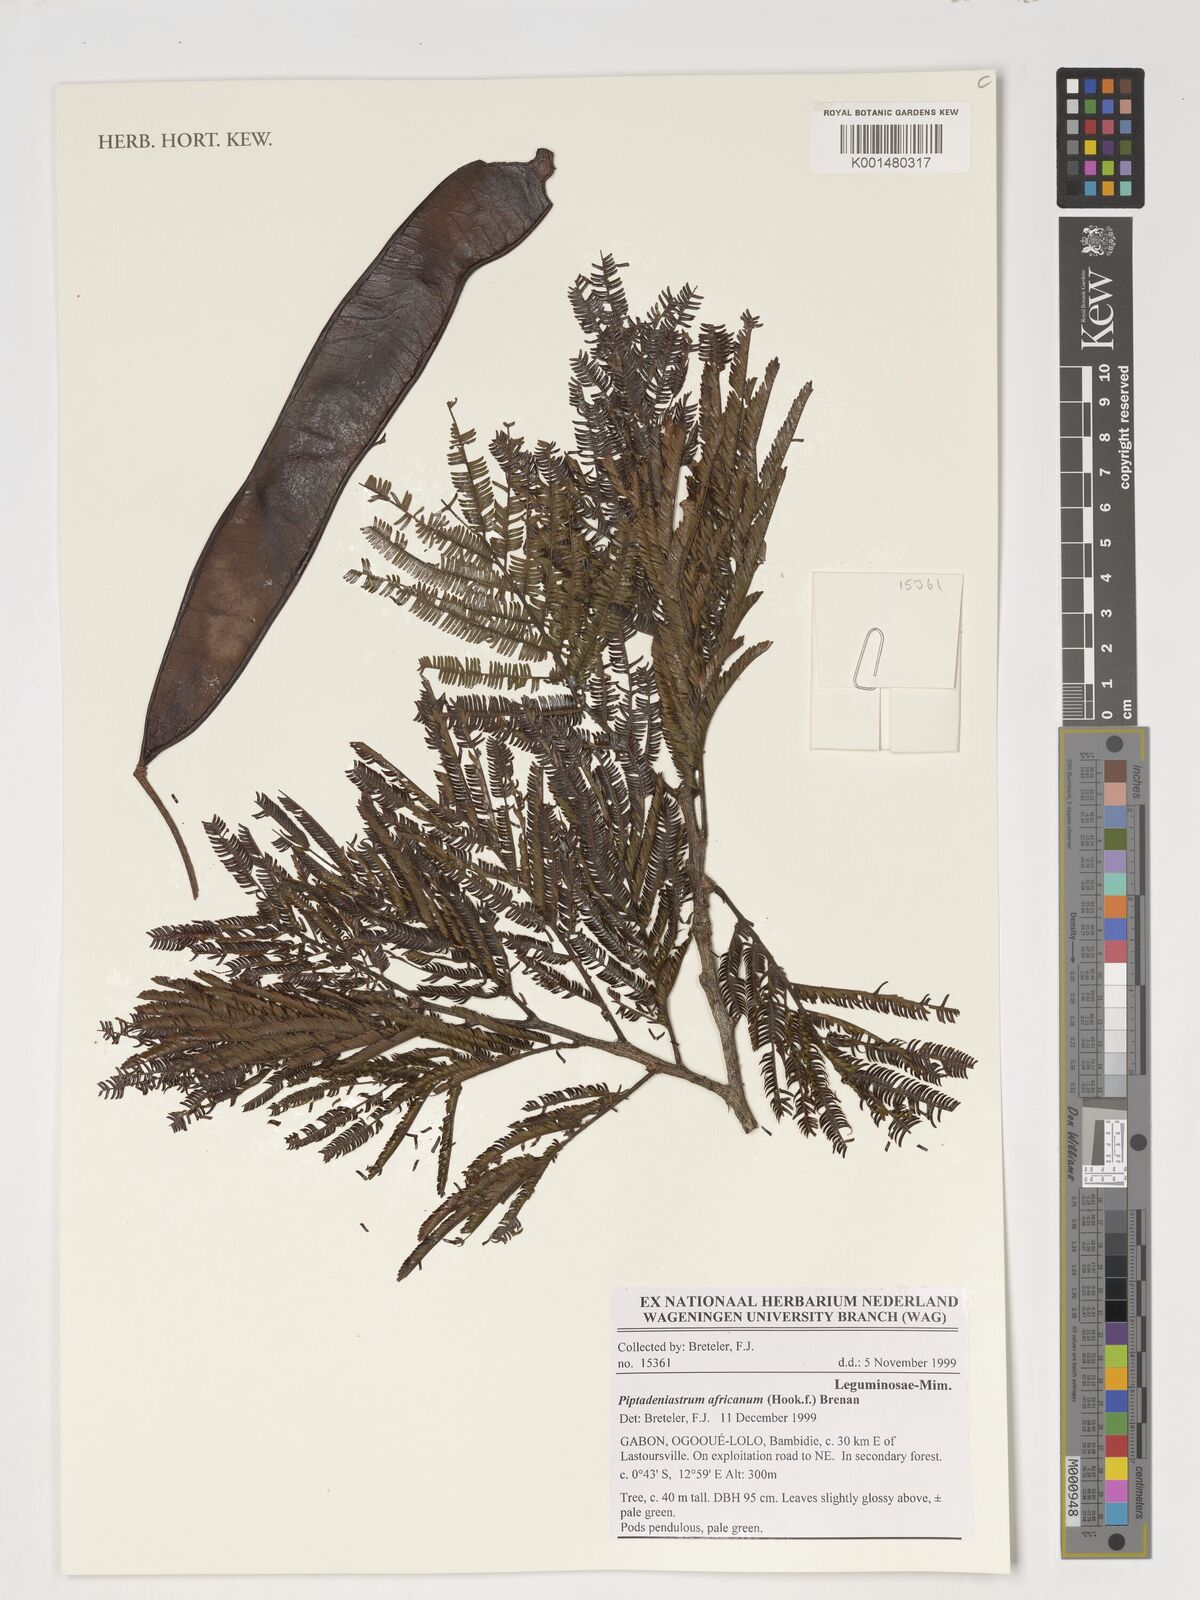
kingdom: Plantae
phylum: Tracheophyta
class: Magnoliopsida
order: Fabales
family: Fabaceae
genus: Piptadeniastrum
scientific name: Piptadeniastrum africanum
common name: African greenheart
